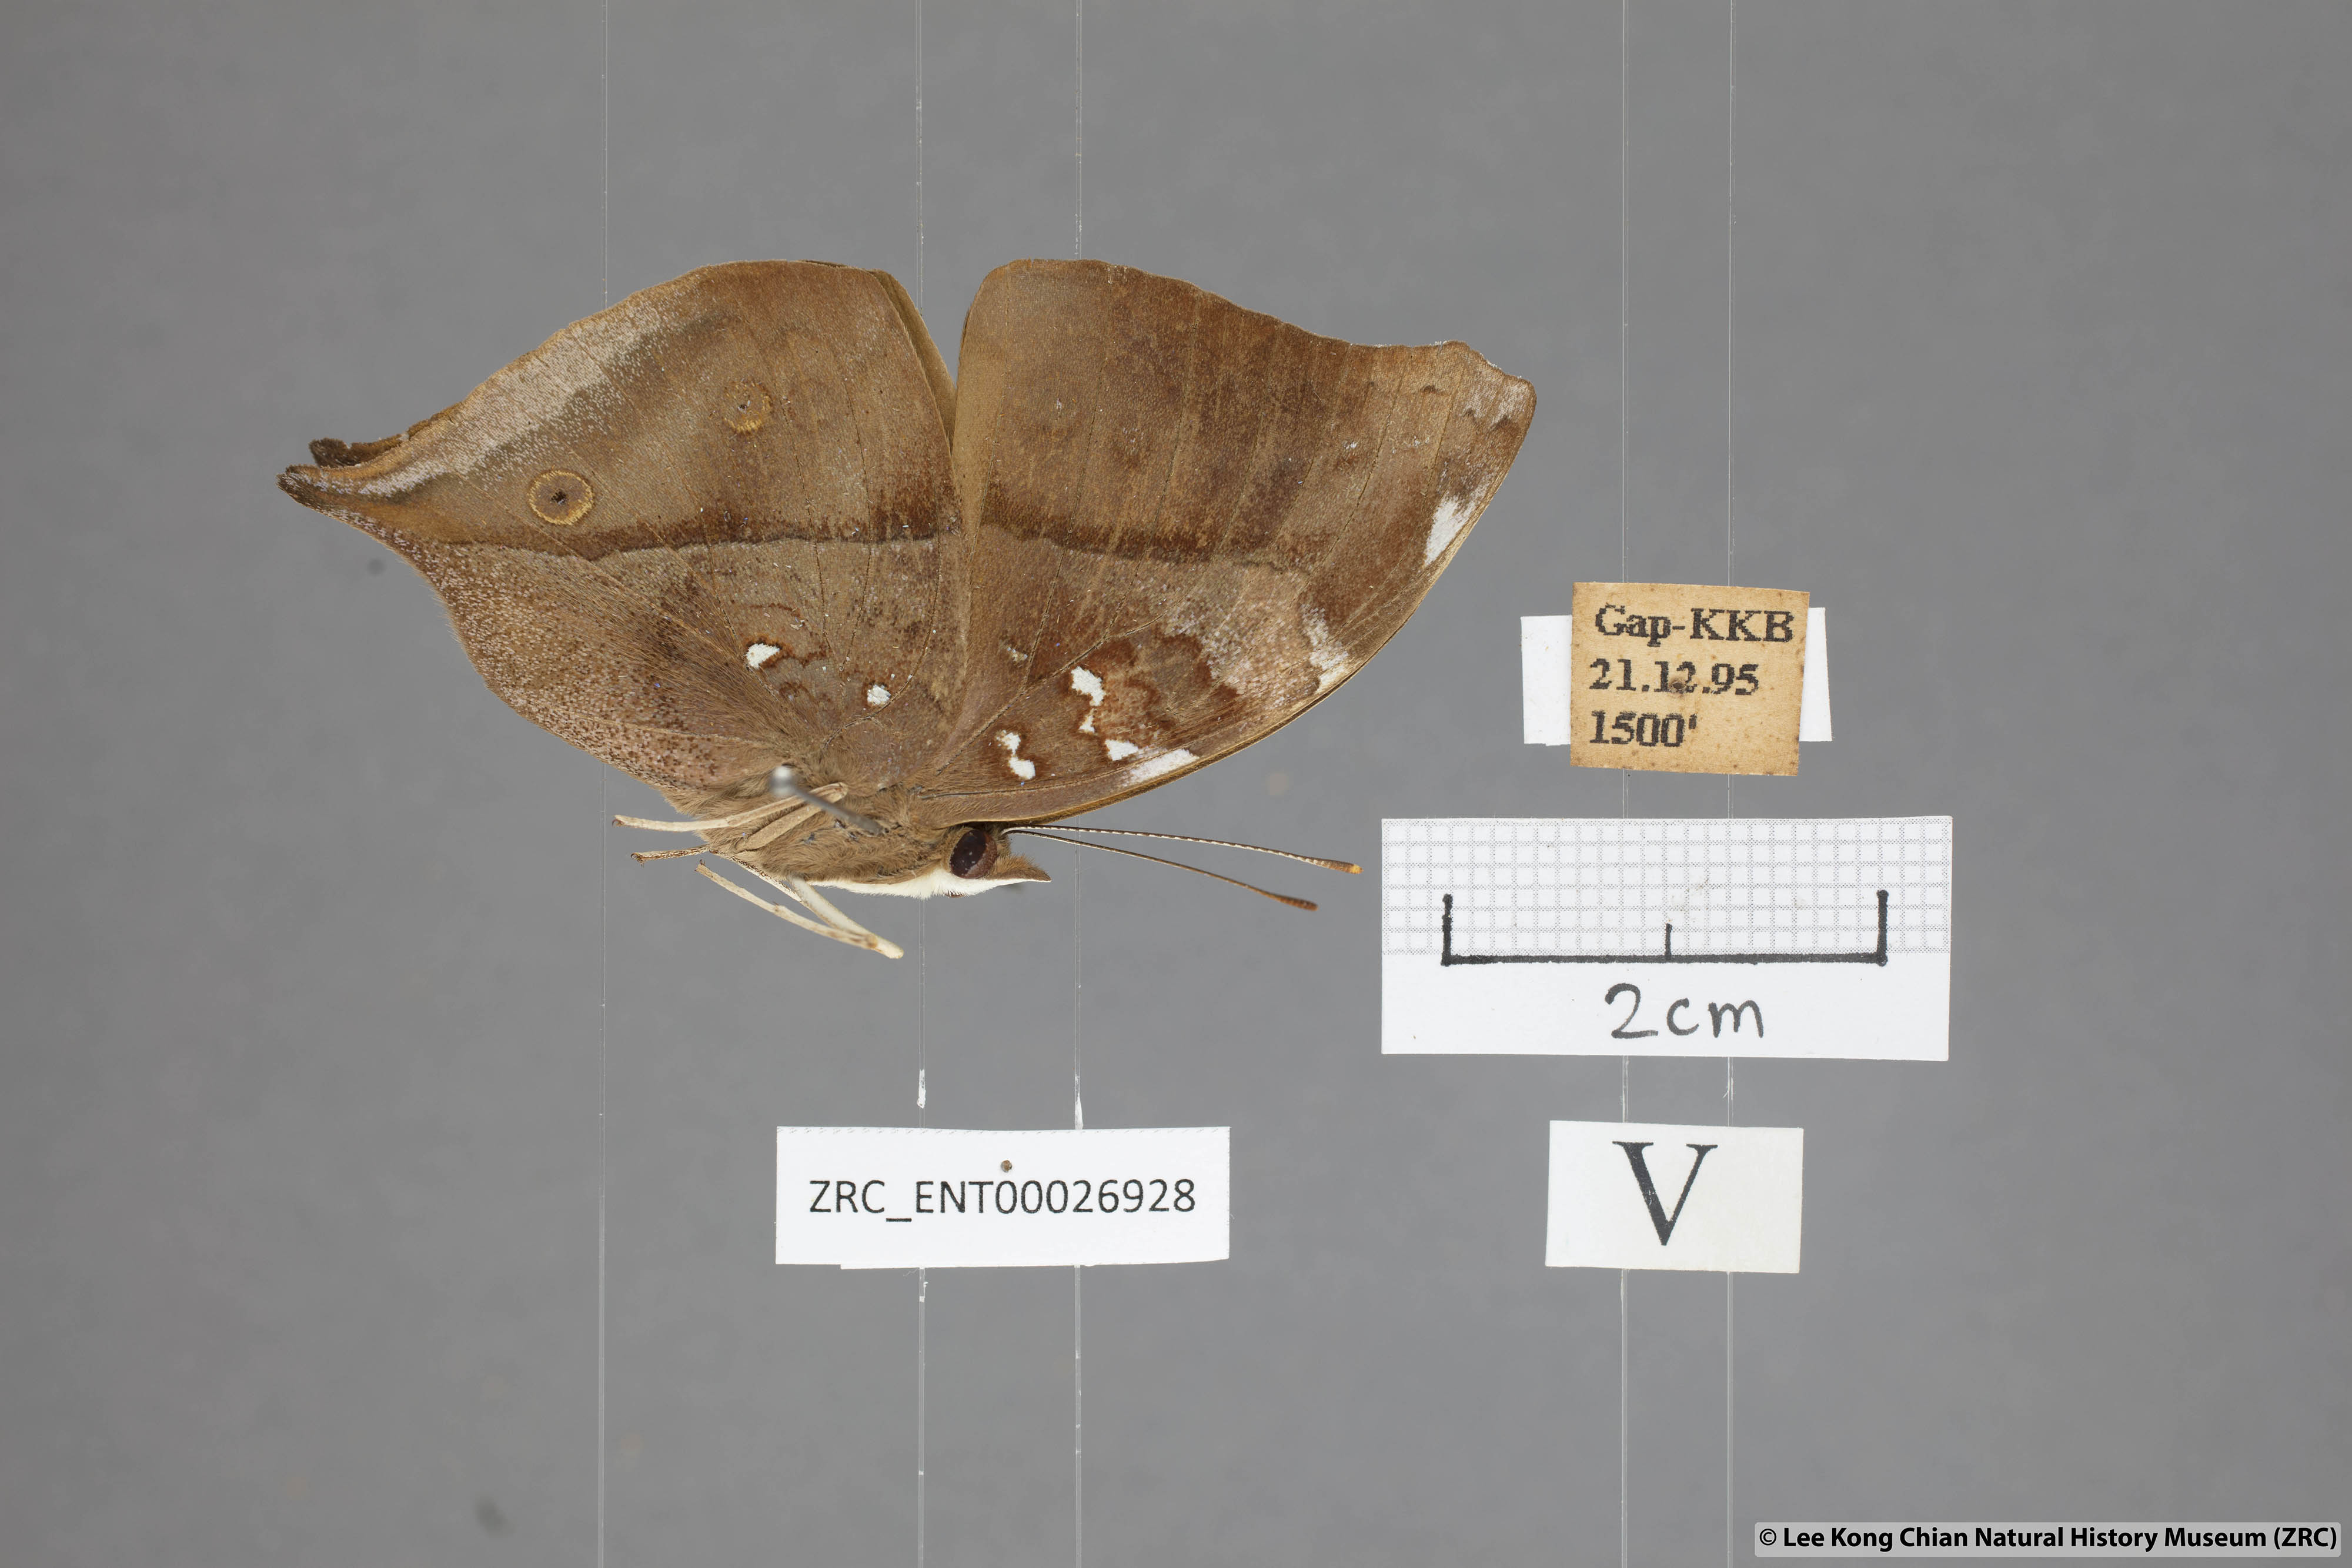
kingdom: Animalia
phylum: Arthropoda
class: Insecta
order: Lepidoptera
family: Nymphalidae
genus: Doleschallia
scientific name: Doleschallia bisaltide
